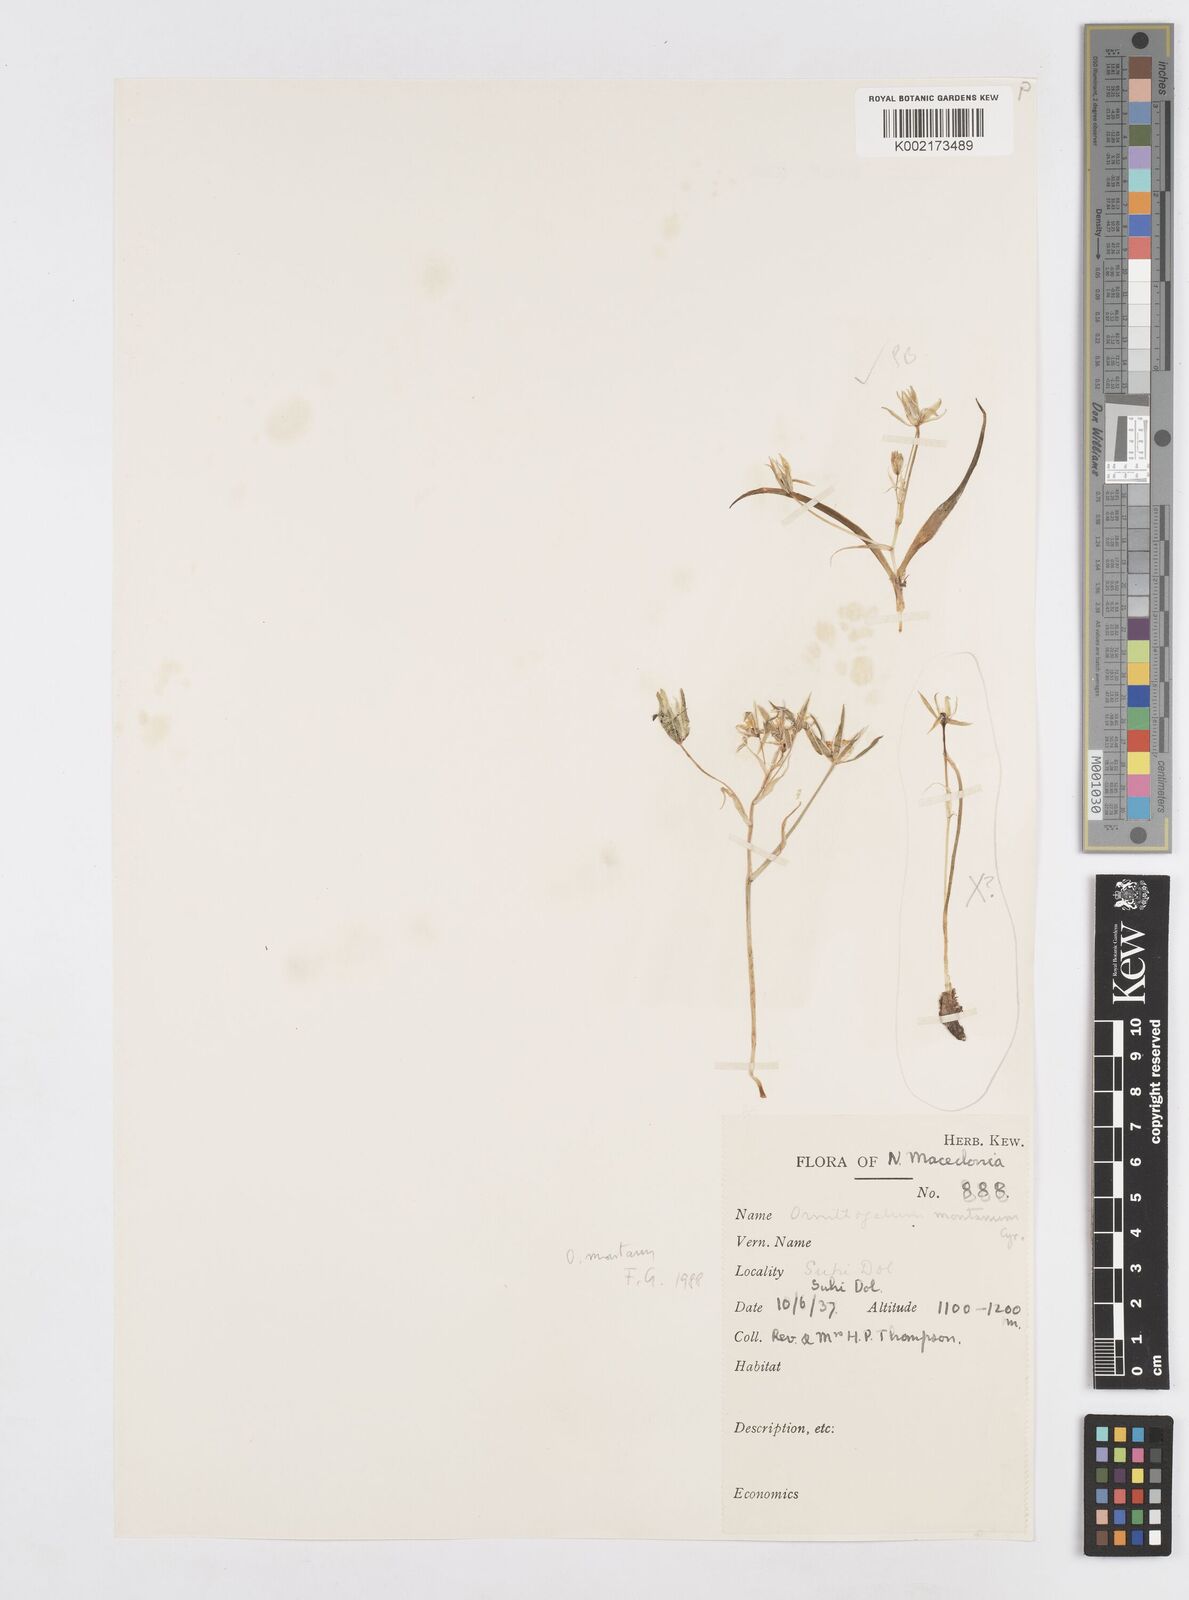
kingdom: Plantae
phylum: Tracheophyta
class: Liliopsida
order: Asparagales
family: Asparagaceae
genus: Ornithogalum
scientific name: Ornithogalum montanum
